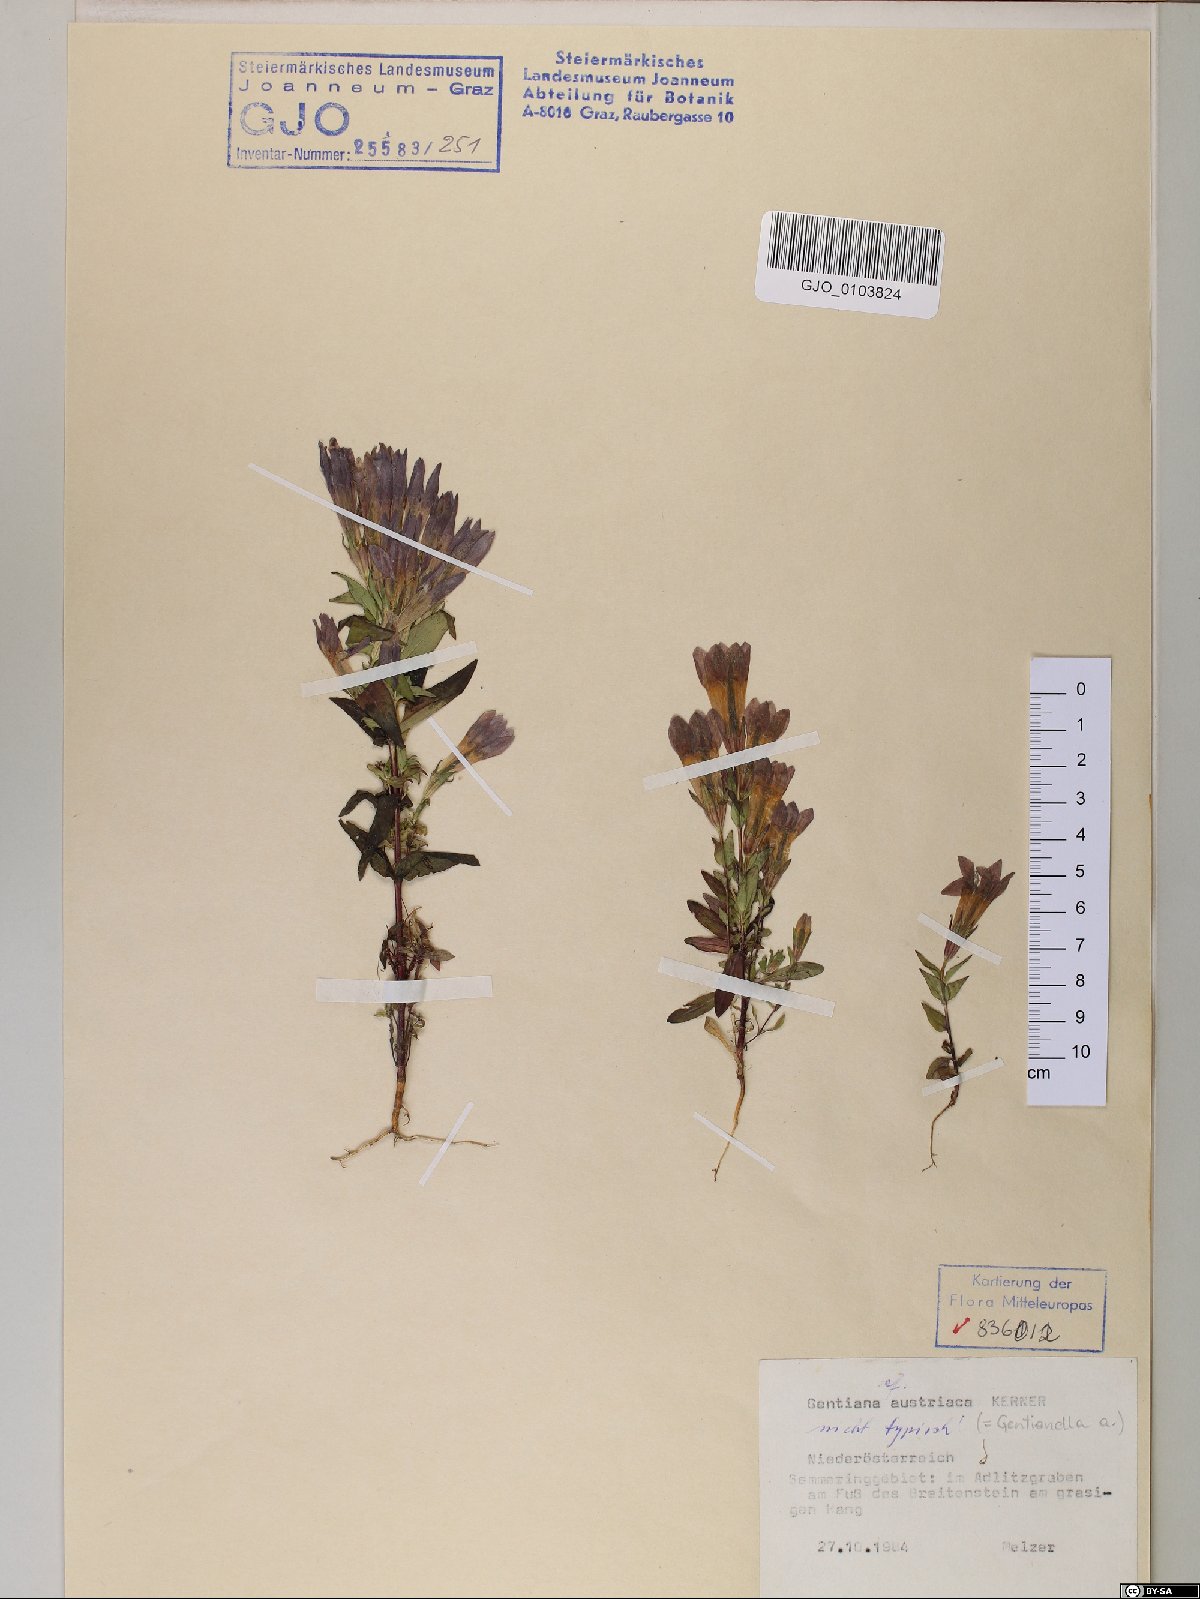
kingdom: Plantae
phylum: Tracheophyta
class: Magnoliopsida
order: Gentianales
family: Gentianaceae
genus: Gentianella
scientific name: Gentianella austriaca
